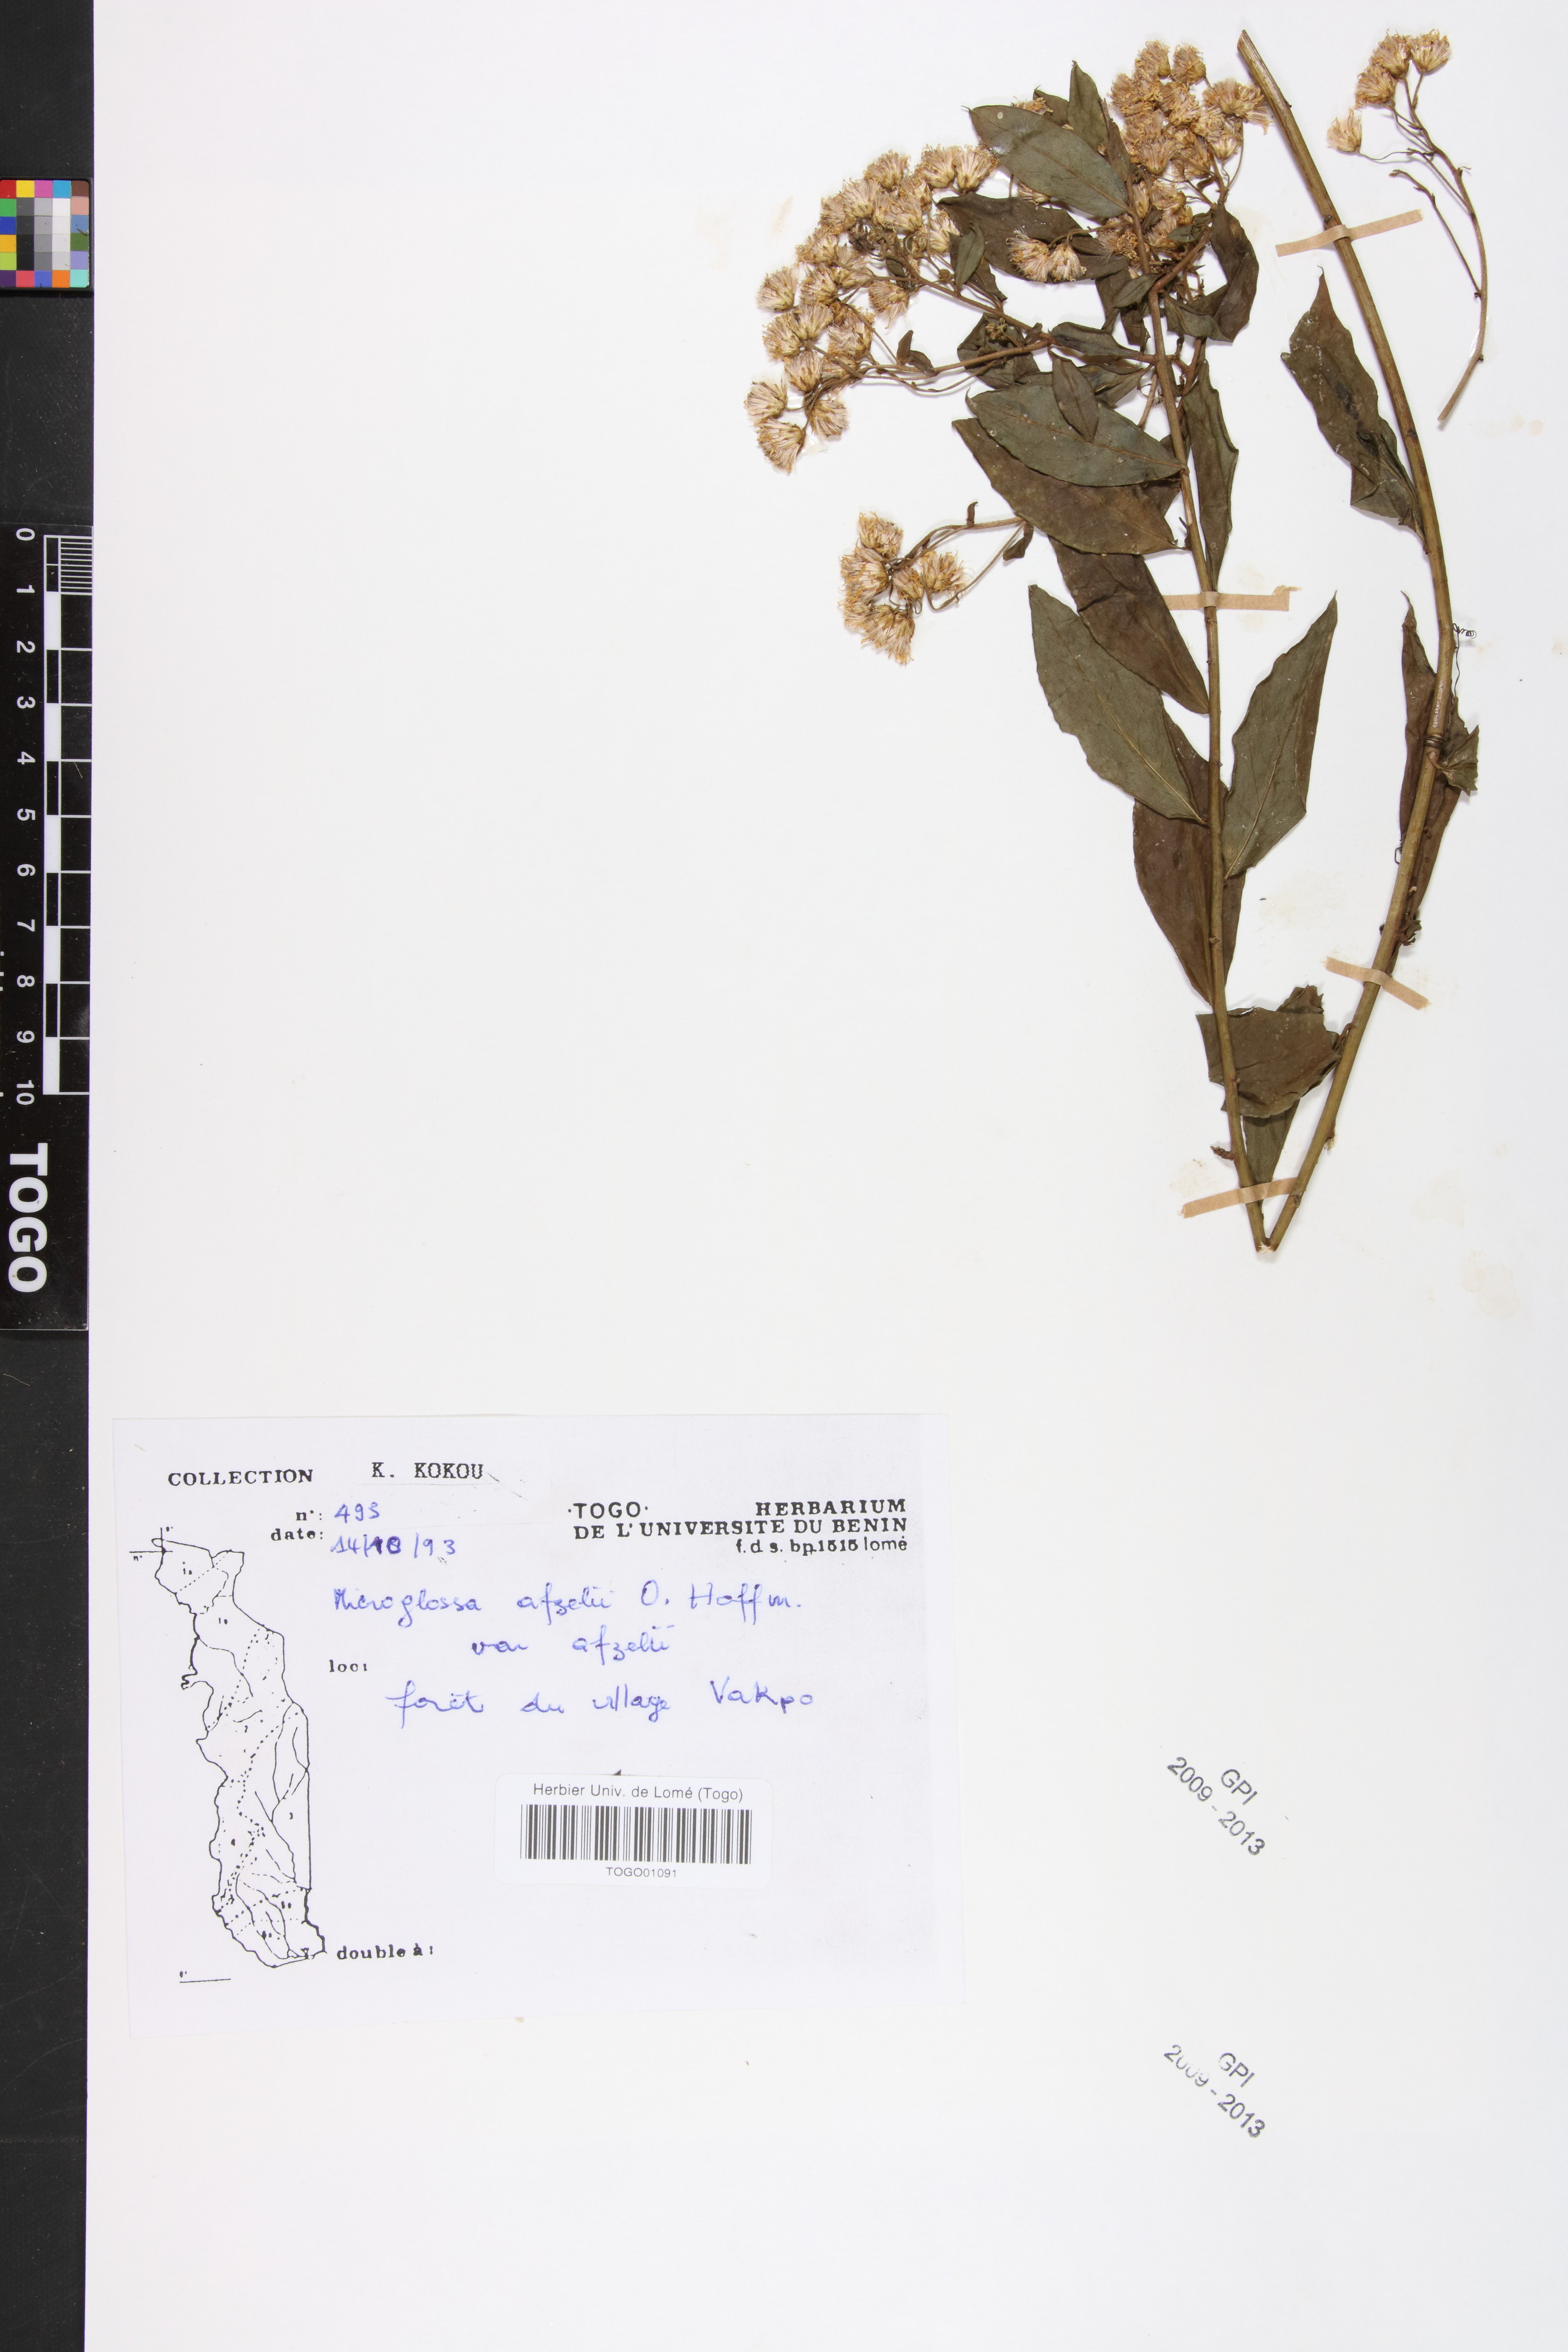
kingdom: Plantae
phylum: Tracheophyta
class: Magnoliopsida
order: Asterales
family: Asteraceae
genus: Microglossa
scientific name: Microglossa afzelii
